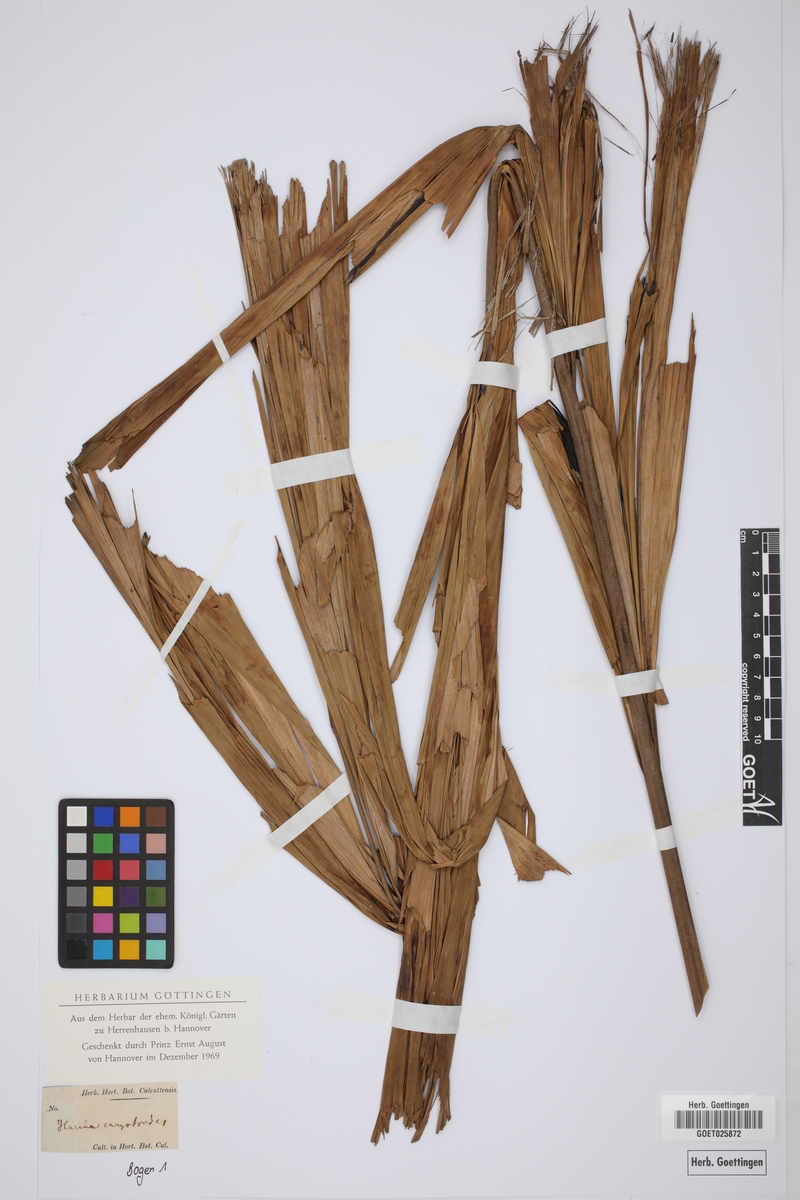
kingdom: Plantae
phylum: Tracheophyta
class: Liliopsida
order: Arecales
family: Arecaceae
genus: Wallichia
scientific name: Wallichia caryotoides
